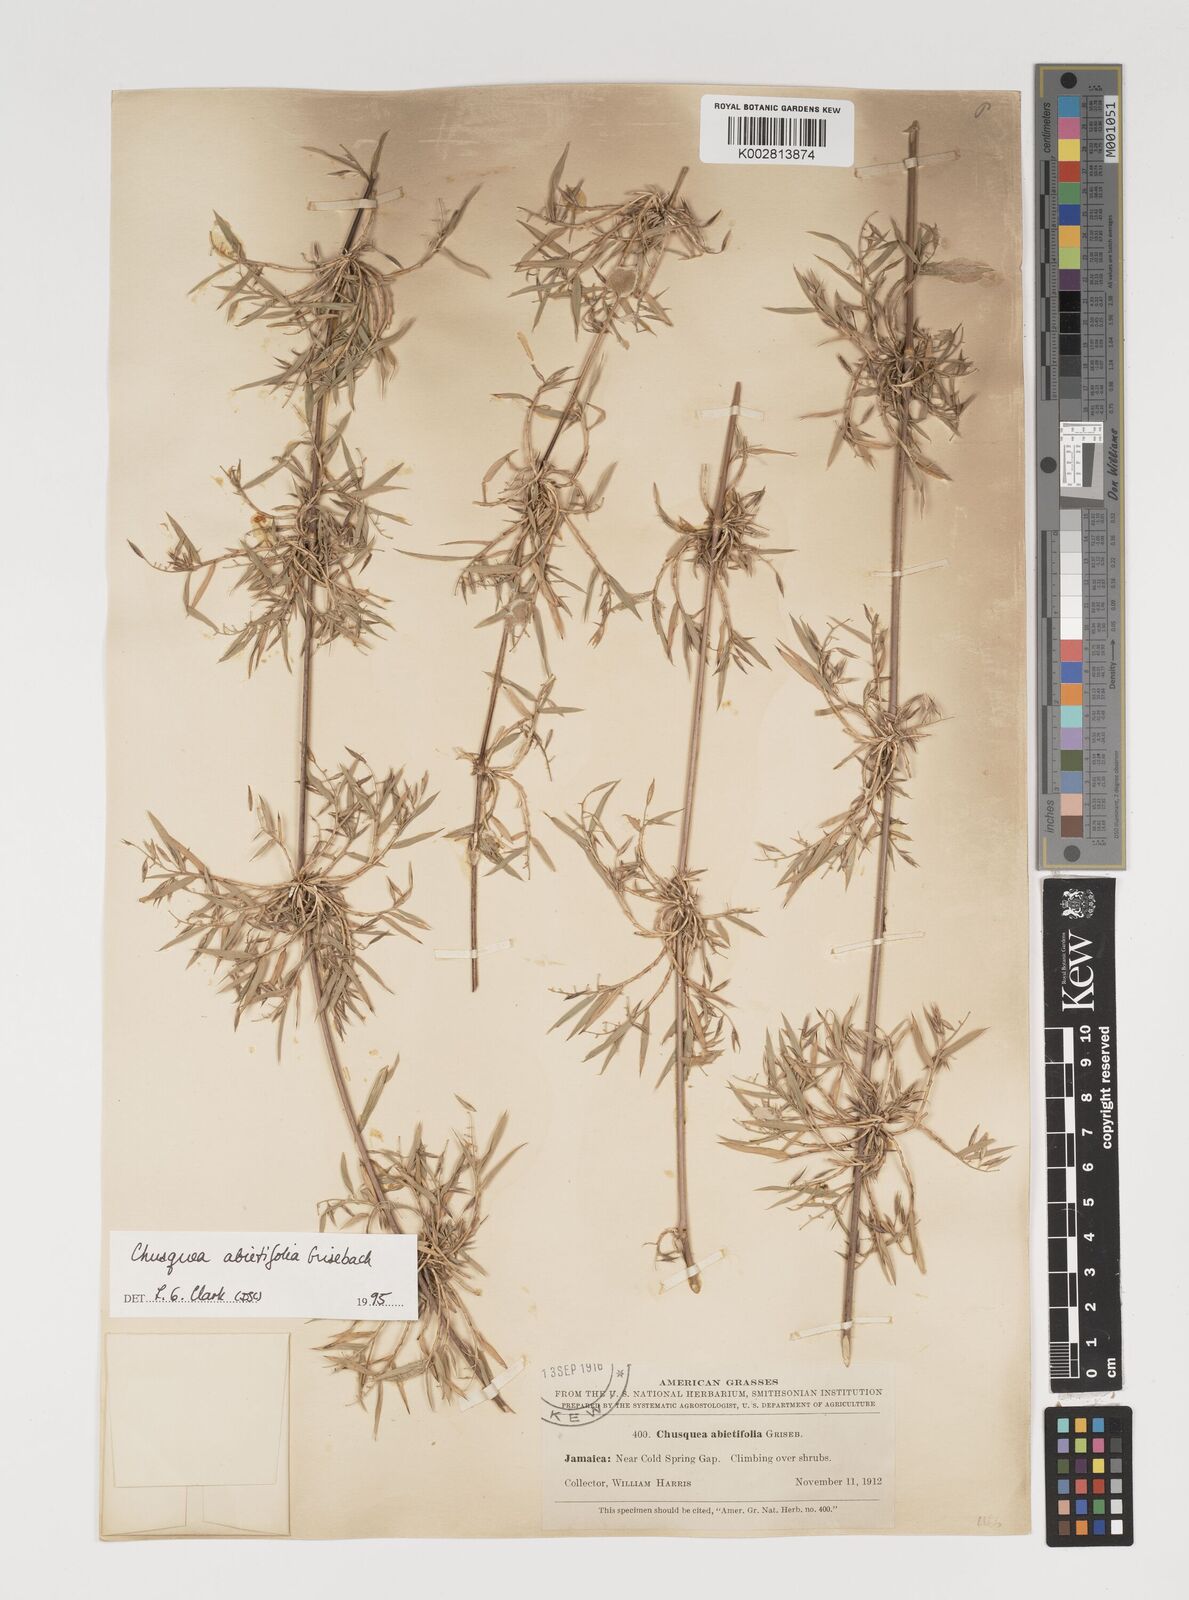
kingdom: Plantae
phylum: Tracheophyta
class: Liliopsida
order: Poales
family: Poaceae
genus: Chusquea
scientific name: Chusquea abietifolia
